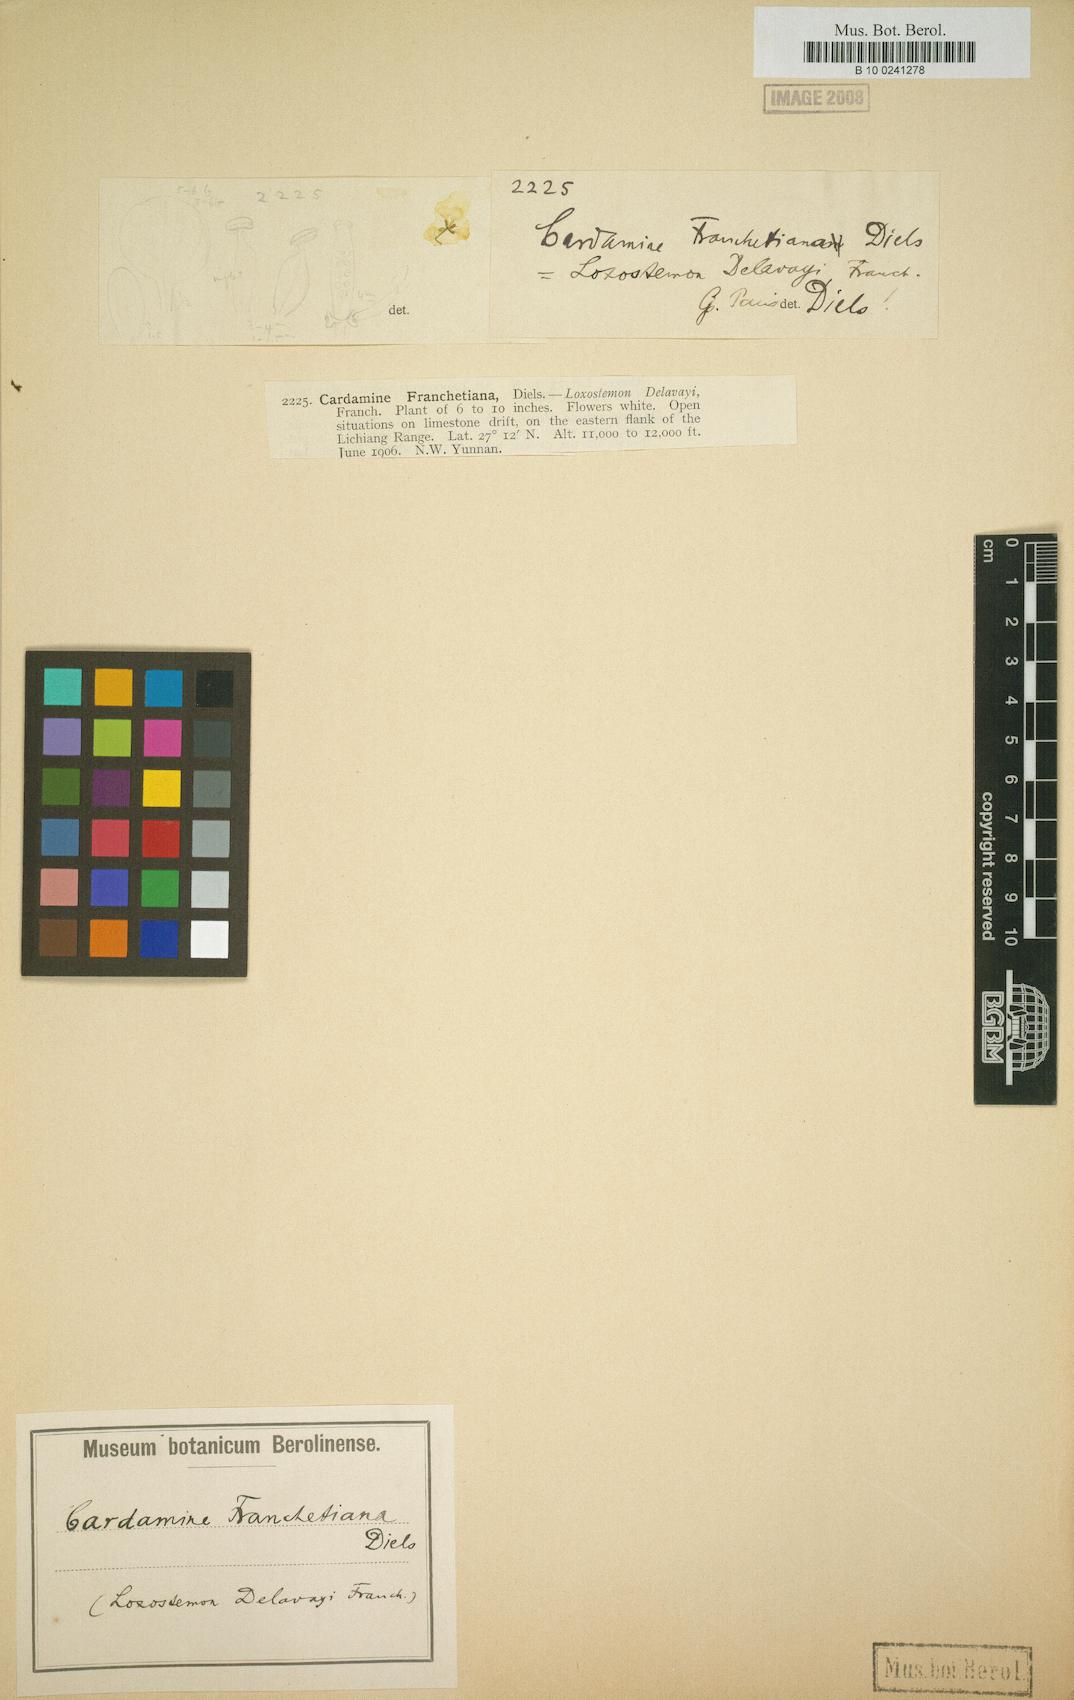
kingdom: Plantae
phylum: Tracheophyta
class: Magnoliopsida
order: Brassicales
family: Brassicaceae
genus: Cardamine
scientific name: Cardamine franchetiana
